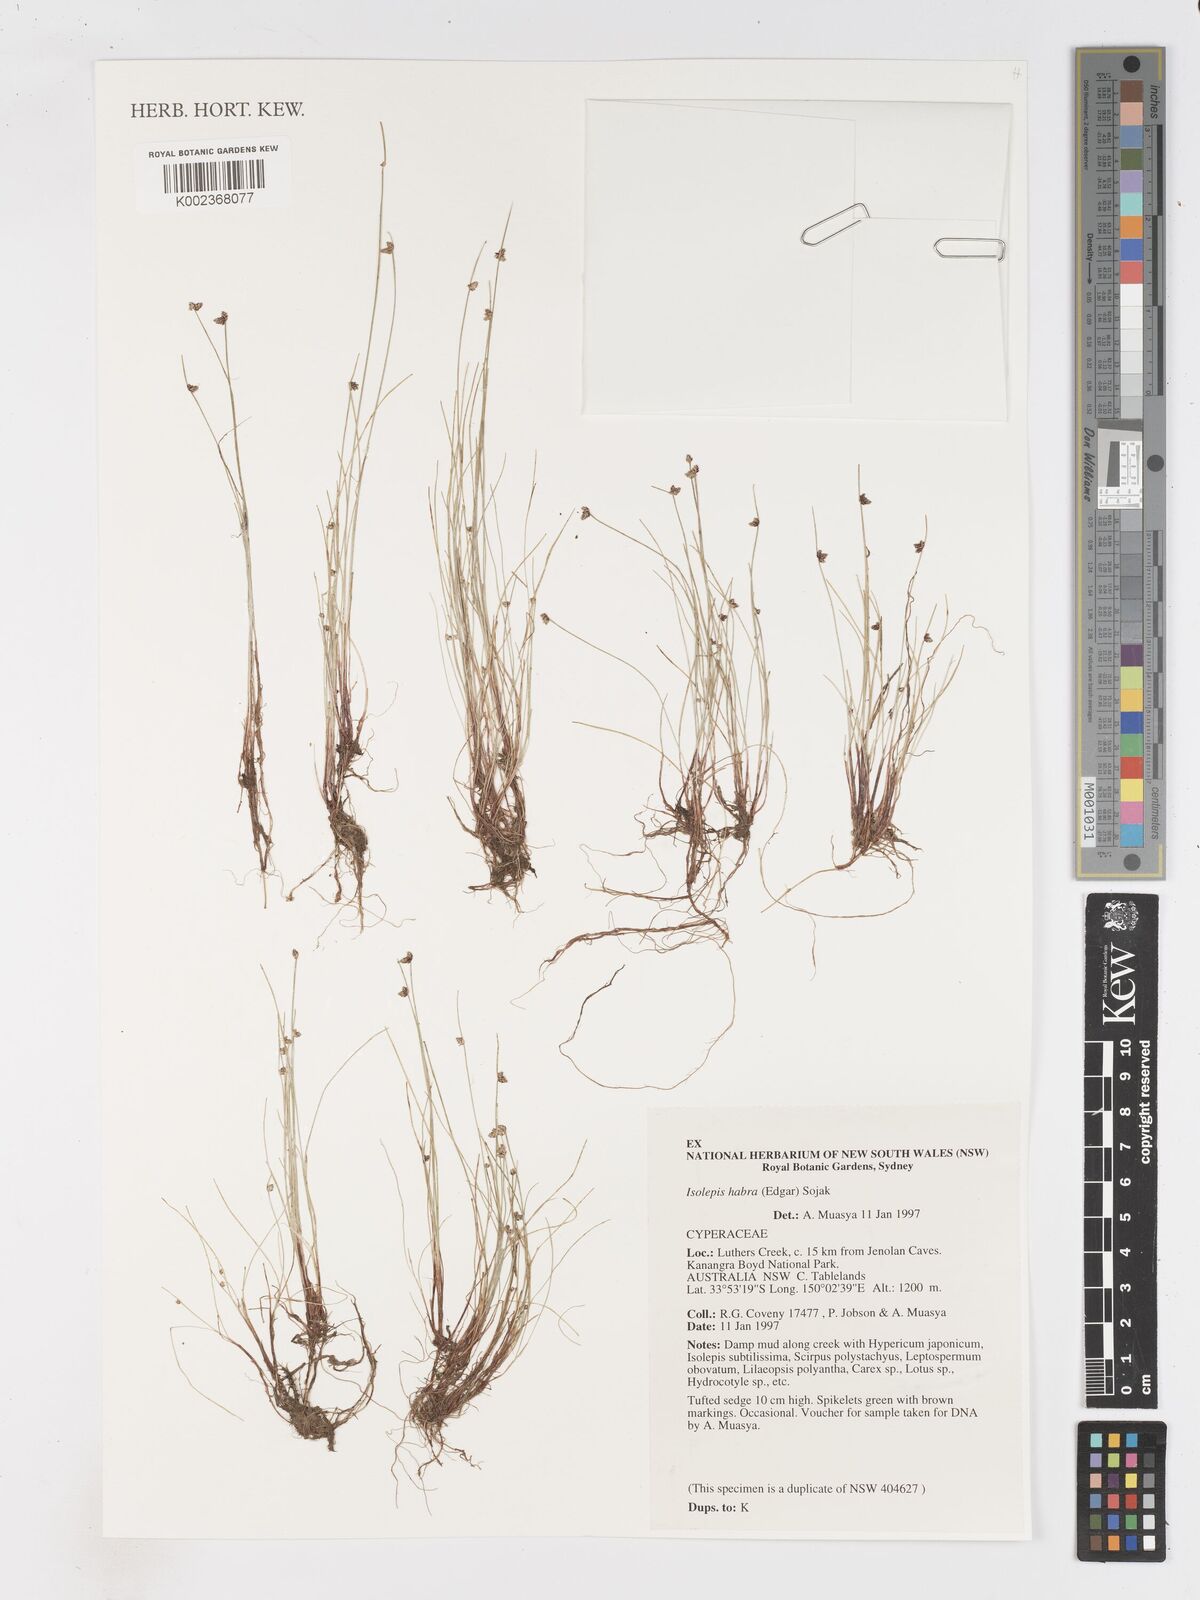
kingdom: Plantae
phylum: Tracheophyta
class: Liliopsida
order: Poales
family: Cyperaceae
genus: Isolepis
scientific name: Isolepis habra
